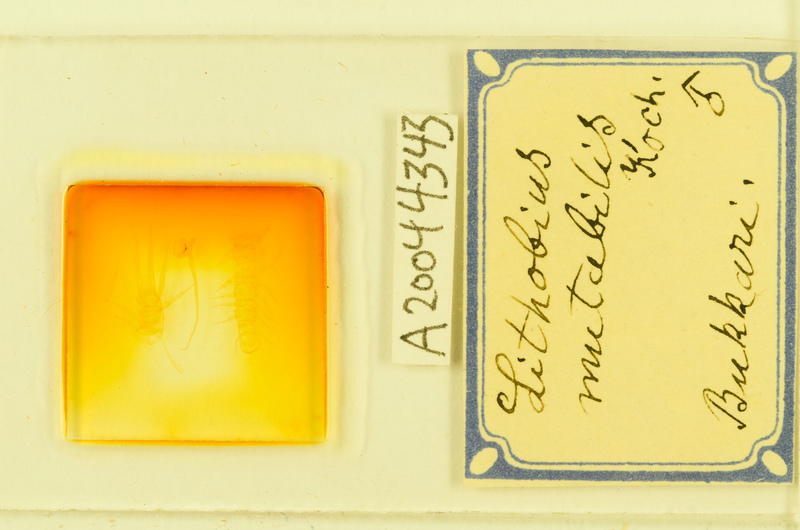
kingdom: Animalia
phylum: Arthropoda
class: Chilopoda
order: Lithobiomorpha
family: Lithobiidae
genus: Lithobius
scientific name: Lithobius mutabilis
